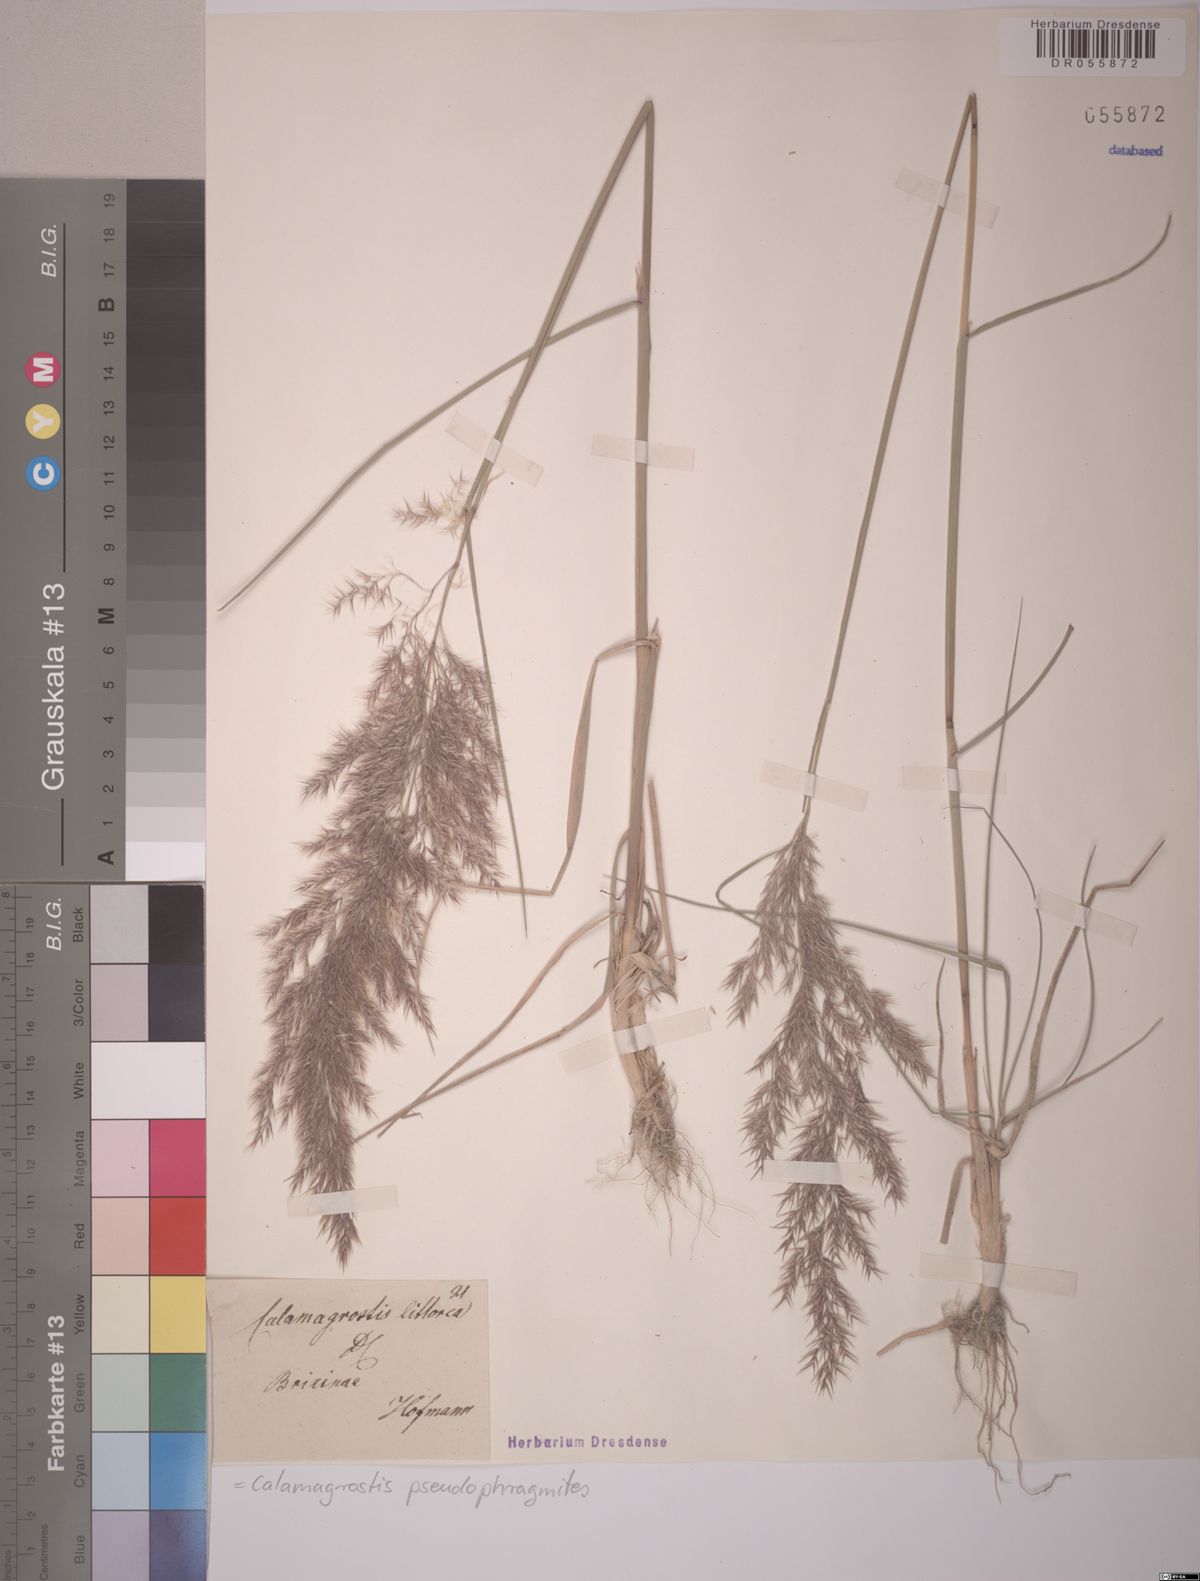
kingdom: Plantae
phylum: Tracheophyta
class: Liliopsida
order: Poales
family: Poaceae
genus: Calamagrostis
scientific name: Calamagrostis pseudophragmites
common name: Coastal small-reed
